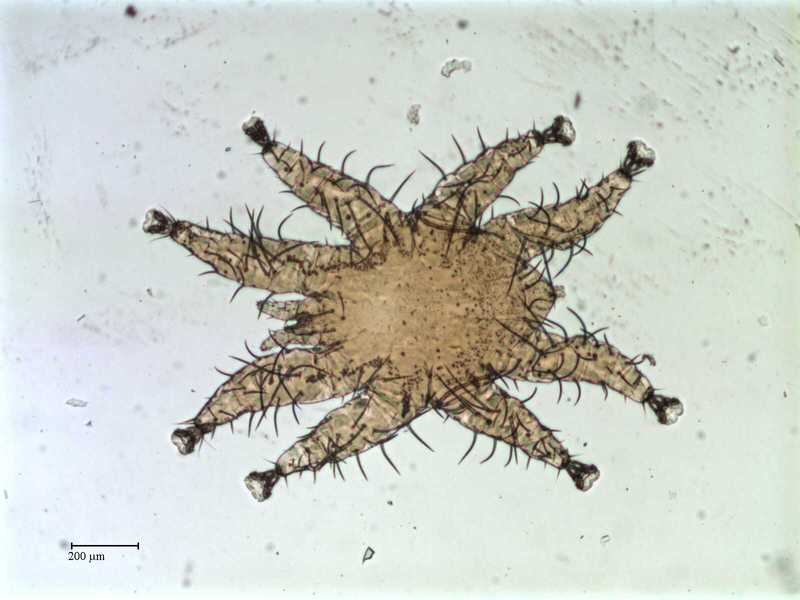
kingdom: Animalia
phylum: Arthropoda
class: Arachnida
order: Mesostigmata
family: Spinturnicidae
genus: Spinturnix
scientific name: Spinturnix americana
